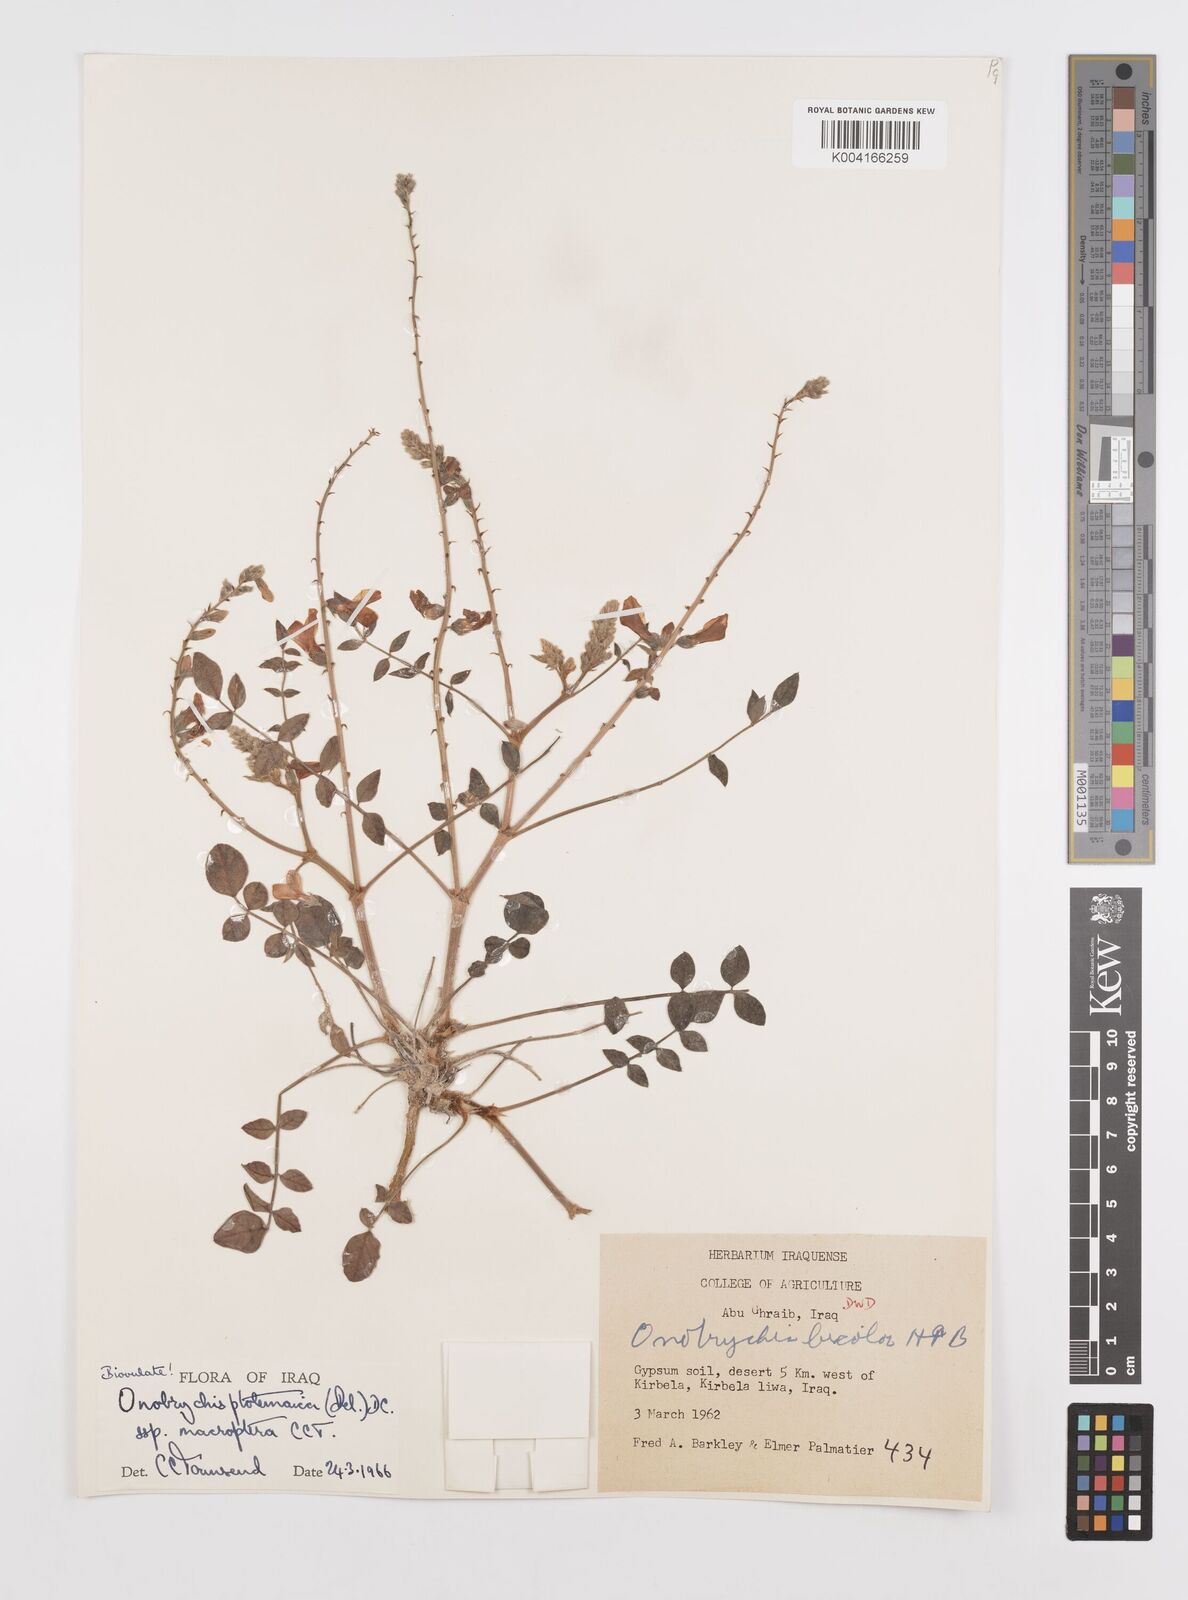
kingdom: Plantae
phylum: Tracheophyta
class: Magnoliopsida
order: Fabales
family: Fabaceae
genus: Onobrychis
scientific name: Onobrychis ptolemaica
